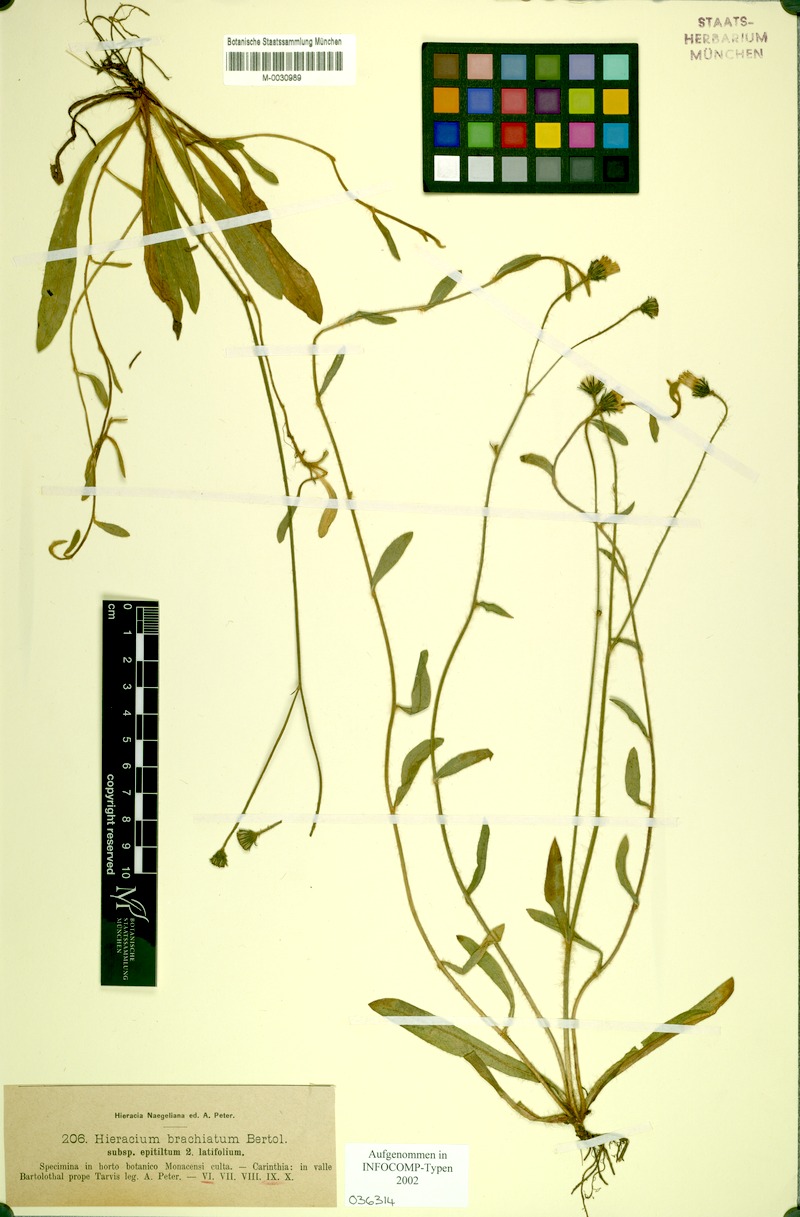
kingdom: Plantae
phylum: Tracheophyta
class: Magnoliopsida
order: Asterales
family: Asteraceae
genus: Pilosella
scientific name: Pilosella acutifolia
